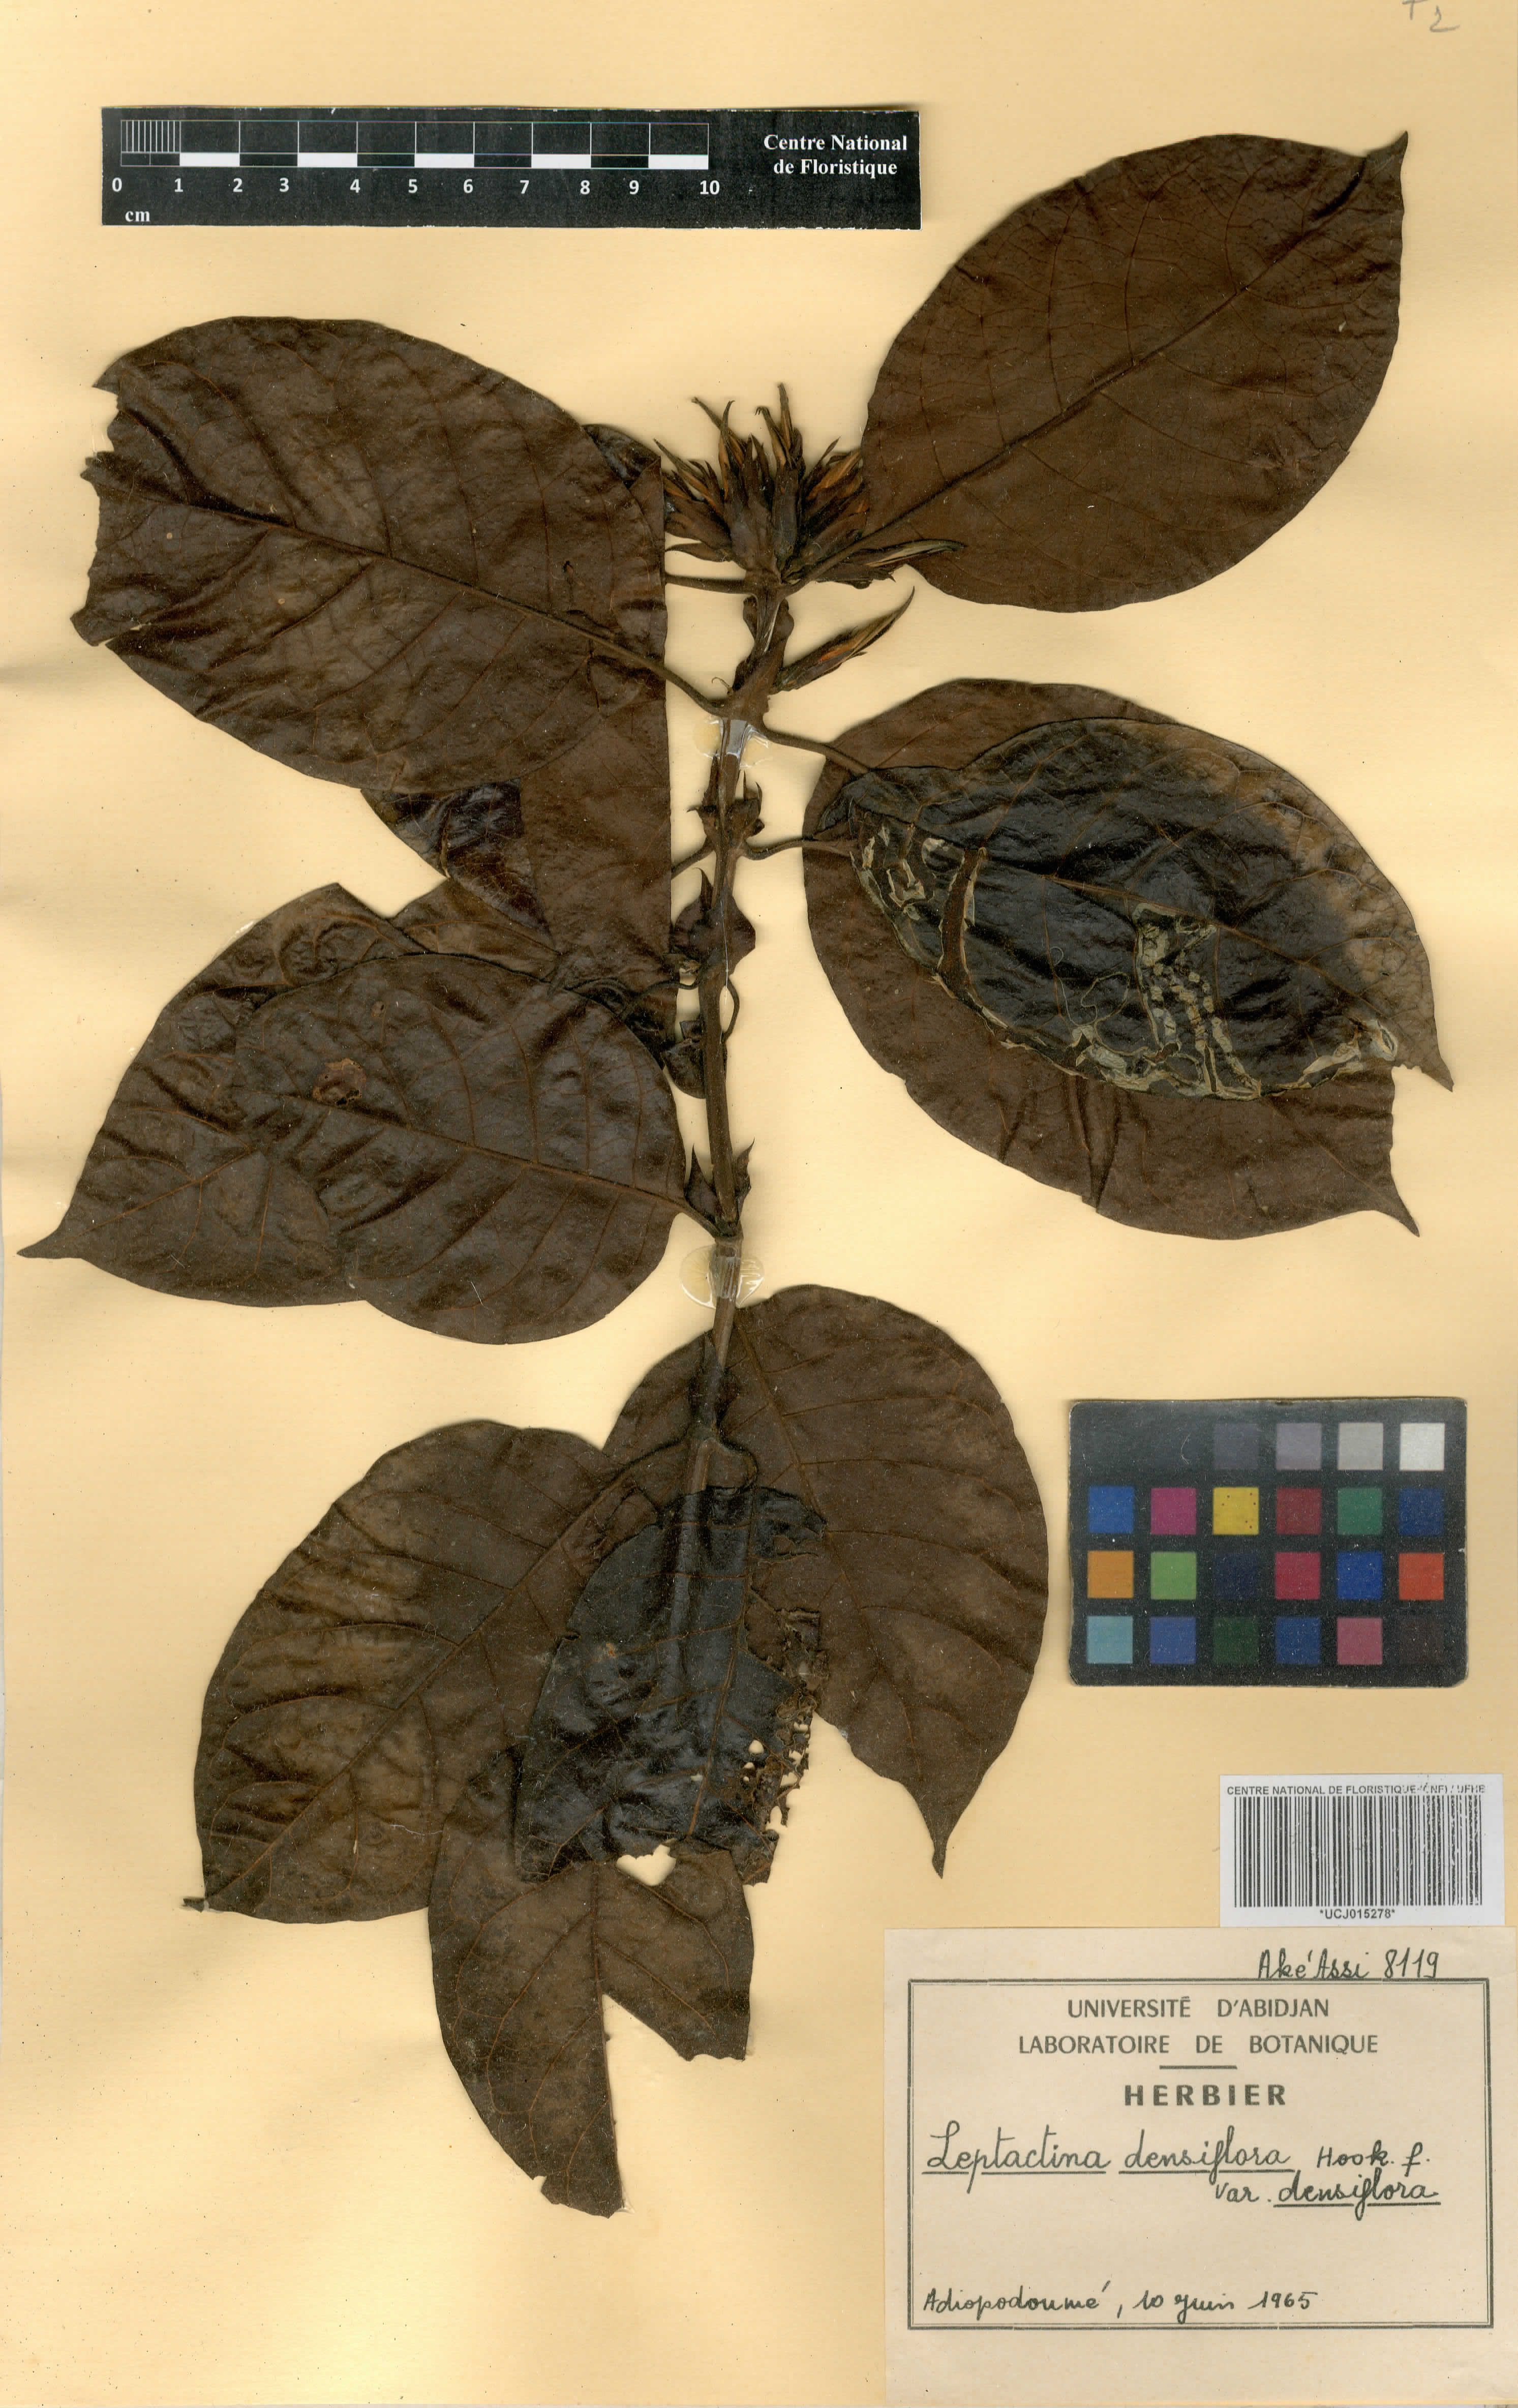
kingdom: Plantae
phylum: Tracheophyta
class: Magnoliopsida
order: Gentianales
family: Rubiaceae
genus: Leptactina
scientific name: Leptactina densiflora
